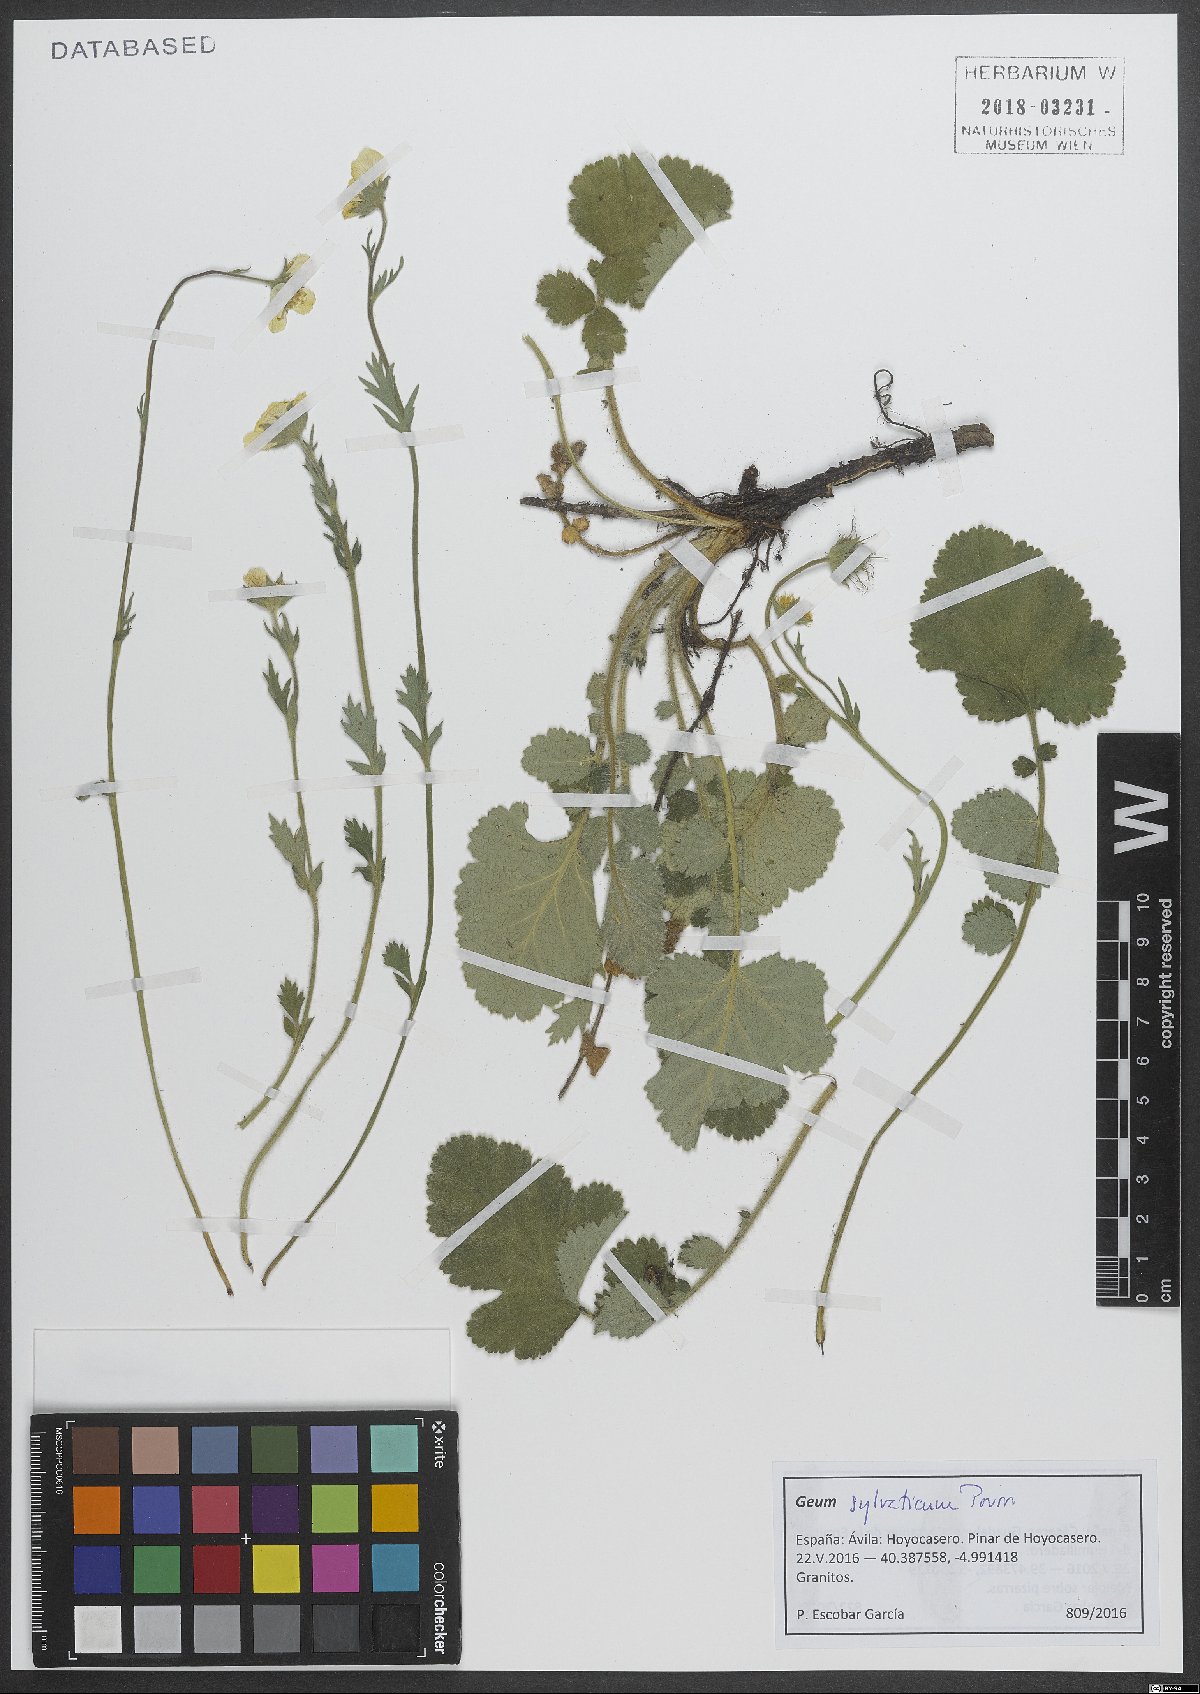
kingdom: Plantae
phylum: Tracheophyta
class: Magnoliopsida
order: Rosales
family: Rosaceae
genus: Geum
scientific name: Geum sylvaticum
